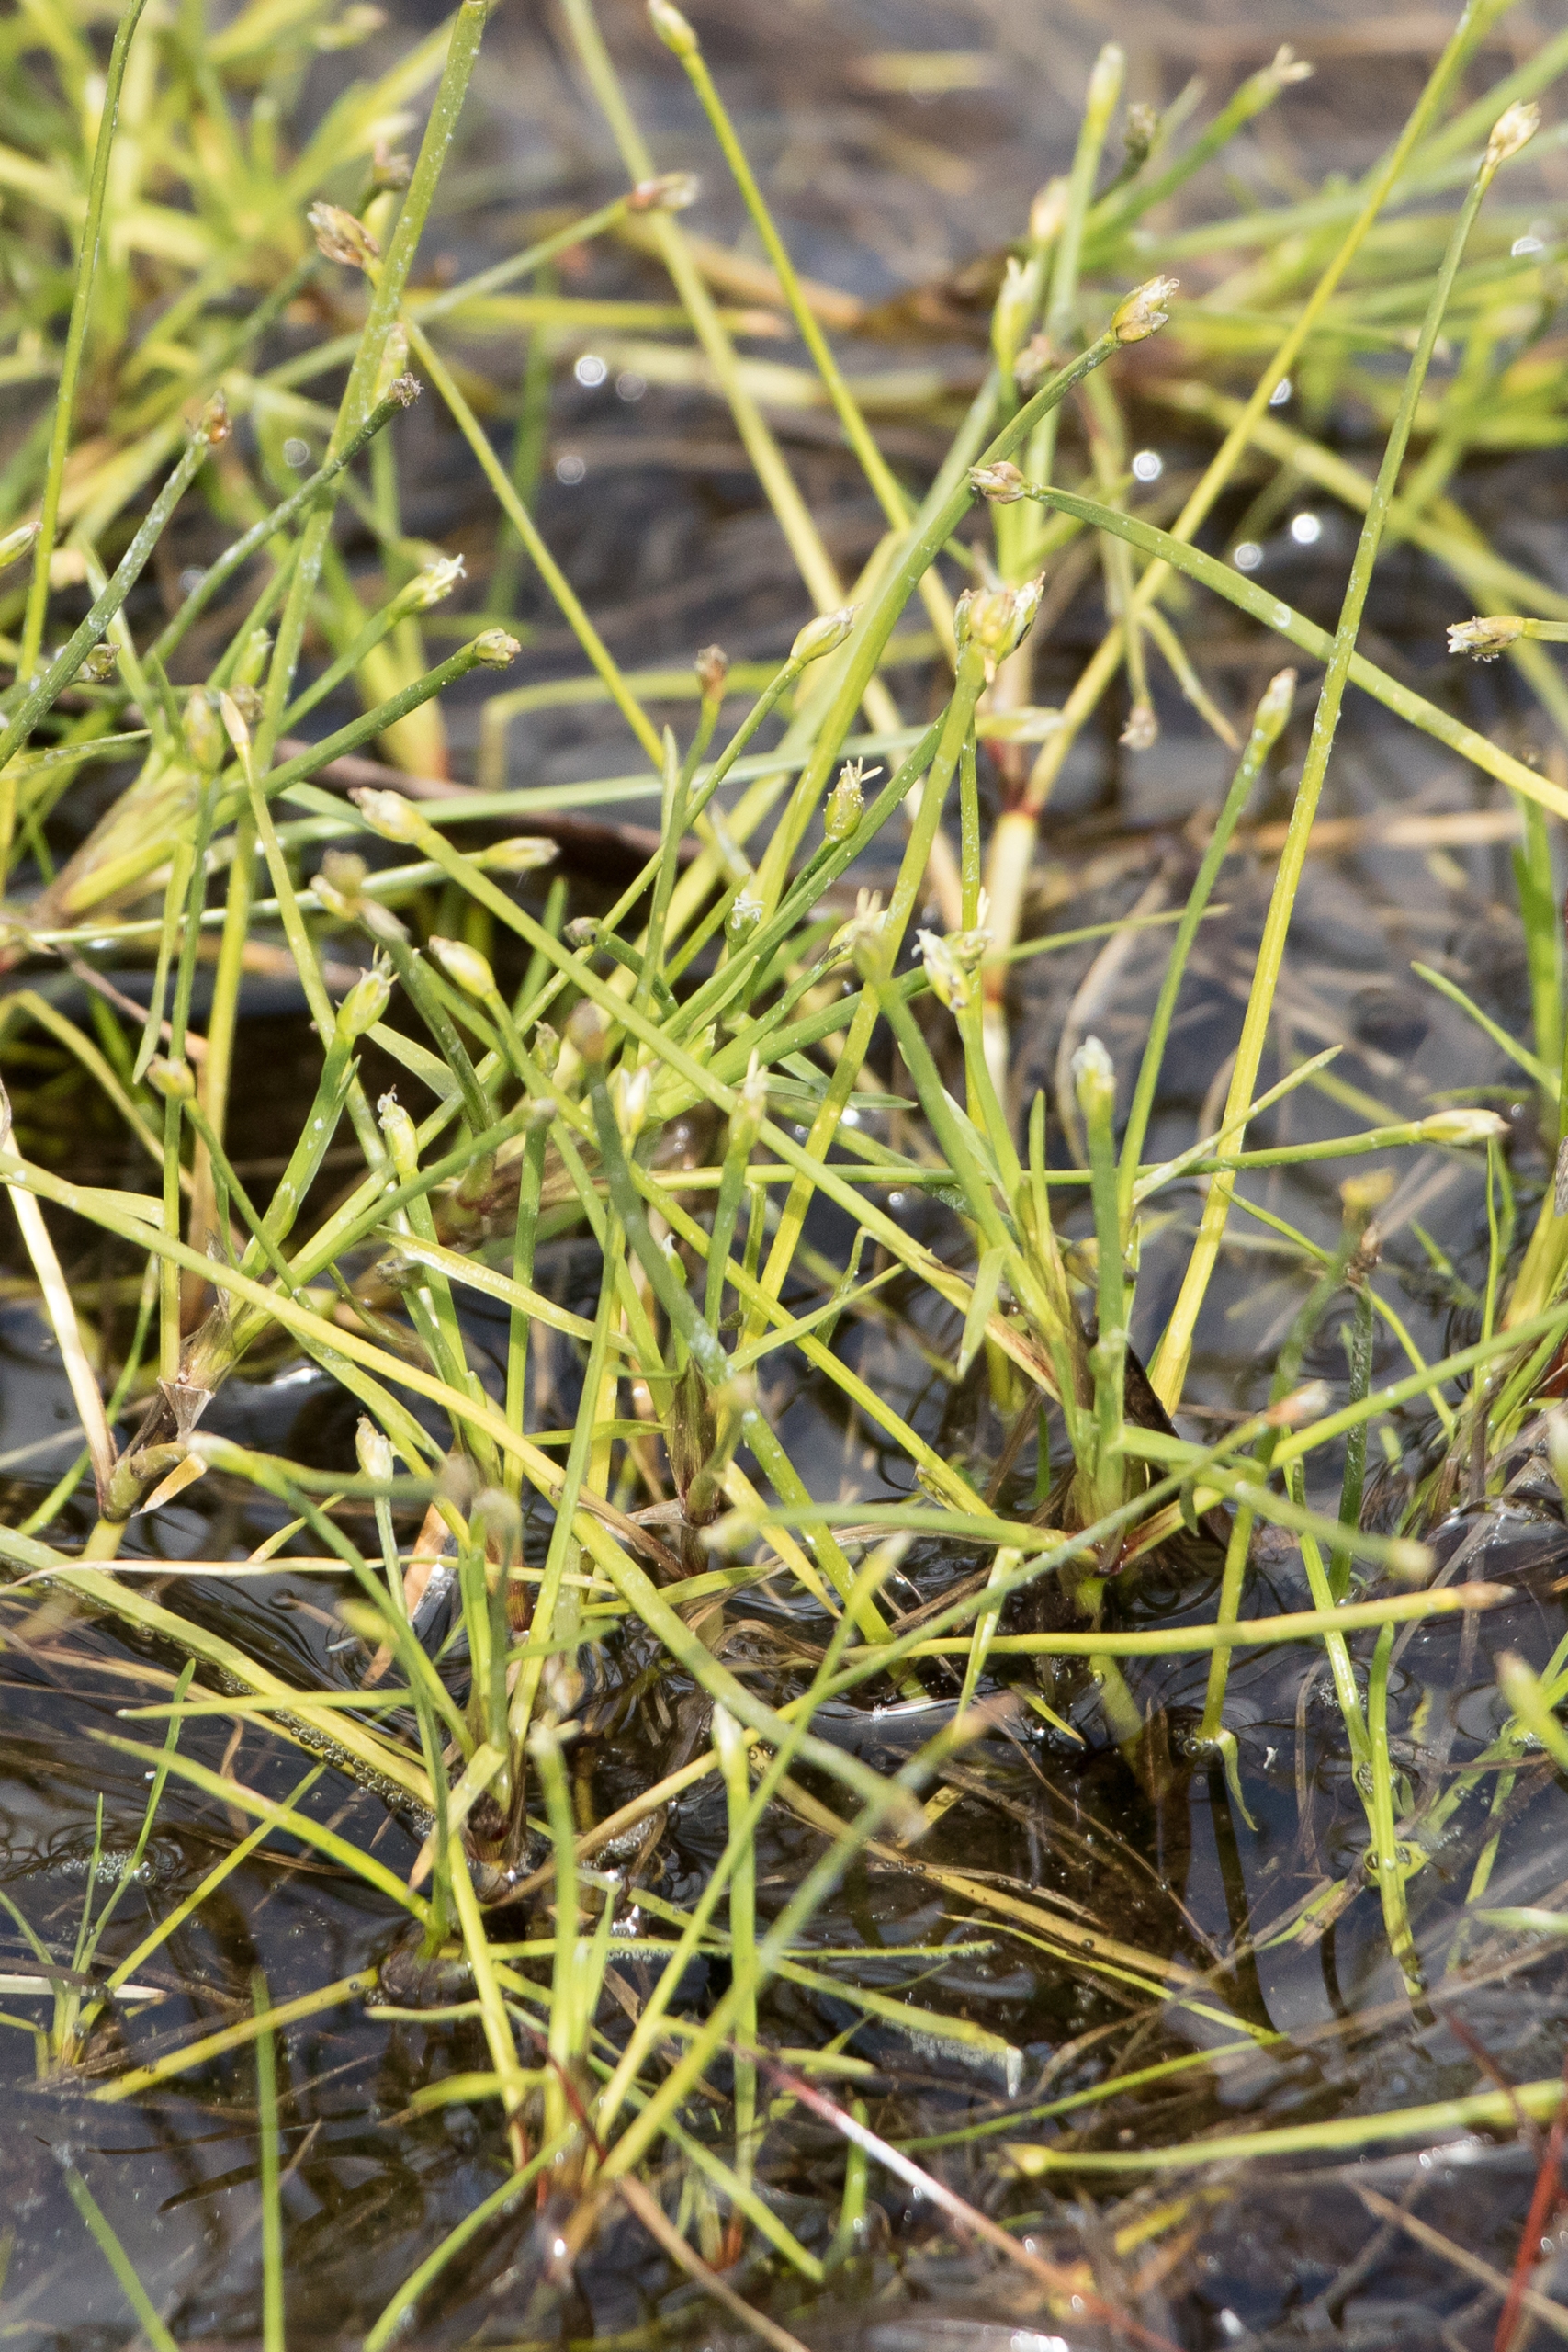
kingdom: Plantae
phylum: Tracheophyta
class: Liliopsida
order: Poales
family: Cyperaceae
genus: Isolepis
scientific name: Isolepis fluitans
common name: Flydende kogleaks
